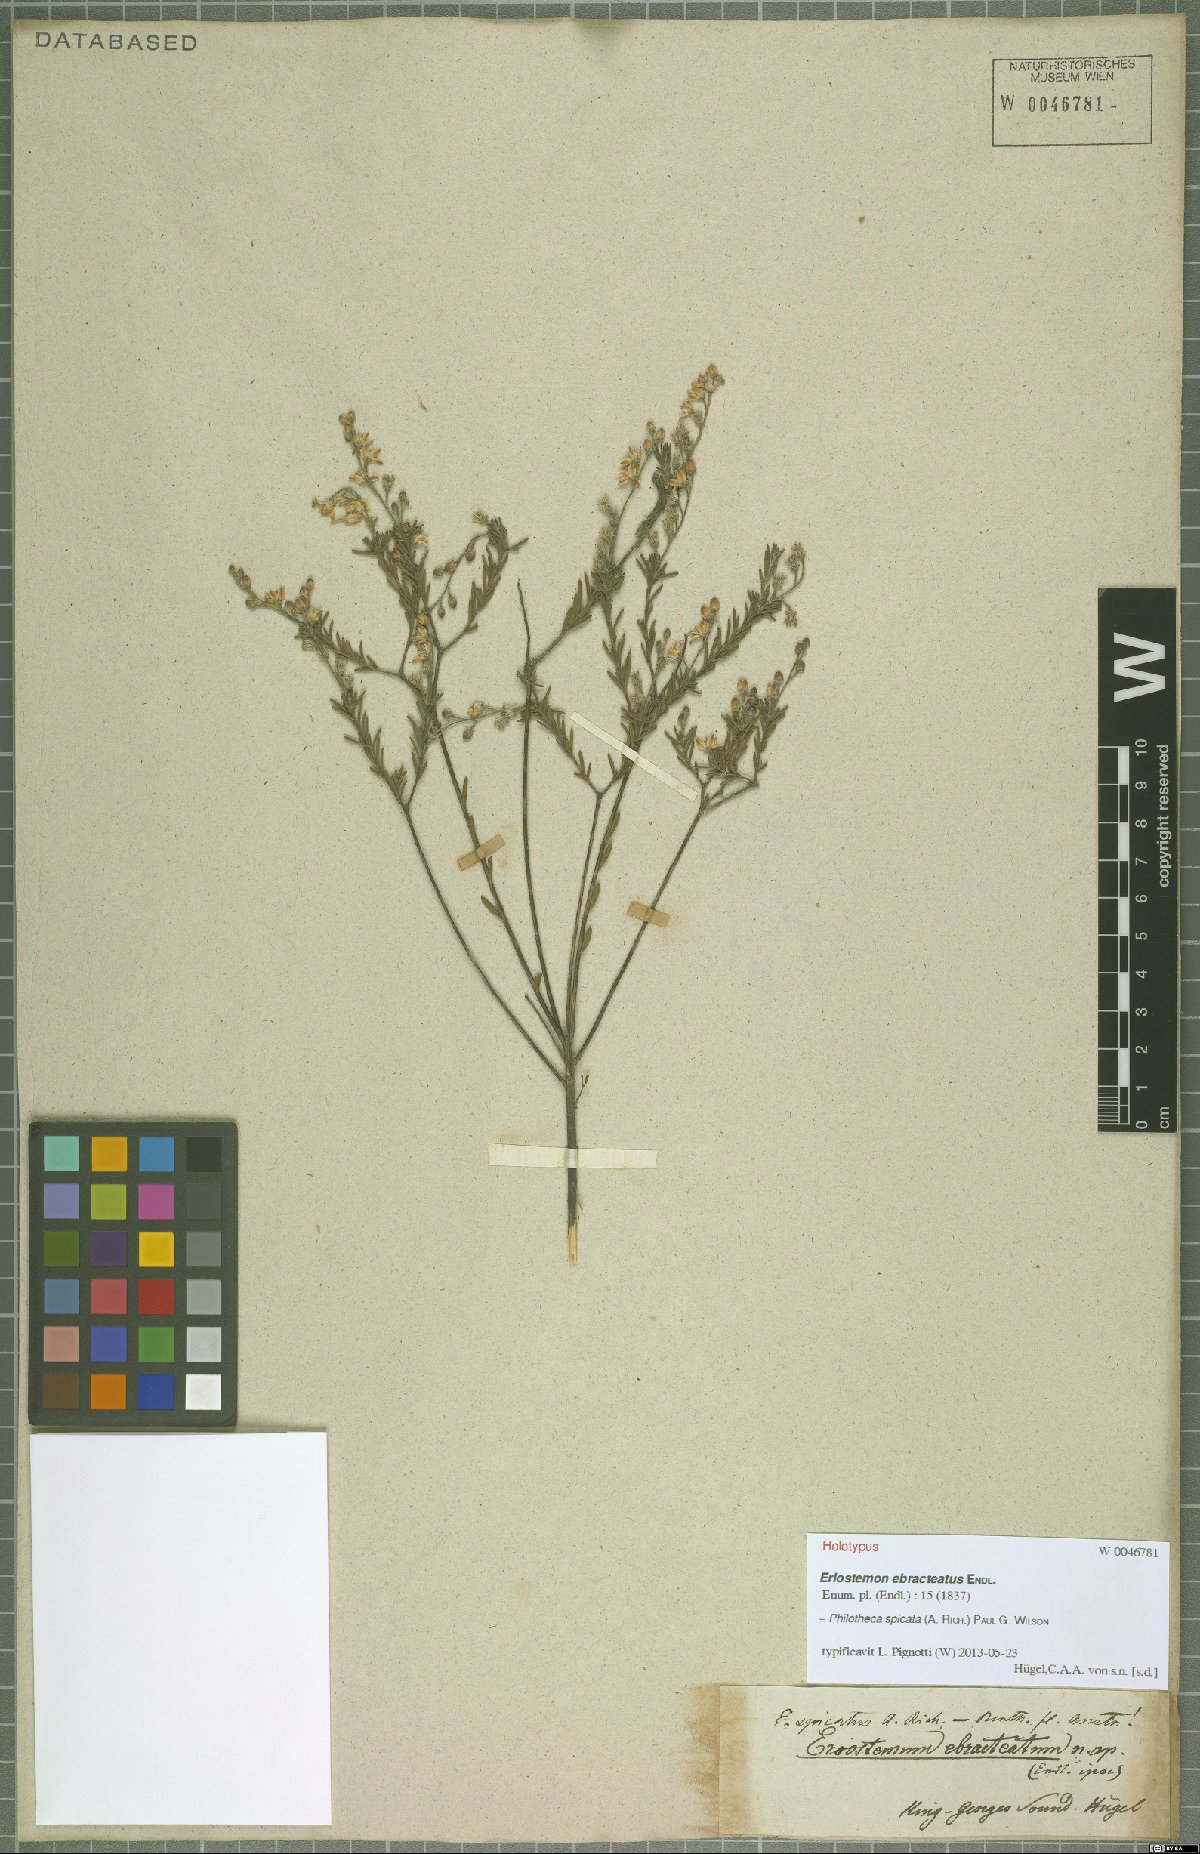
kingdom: Plantae
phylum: Tracheophyta
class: Magnoliopsida
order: Sapindales
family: Rutaceae
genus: Philotheca
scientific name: Philotheca spicata
